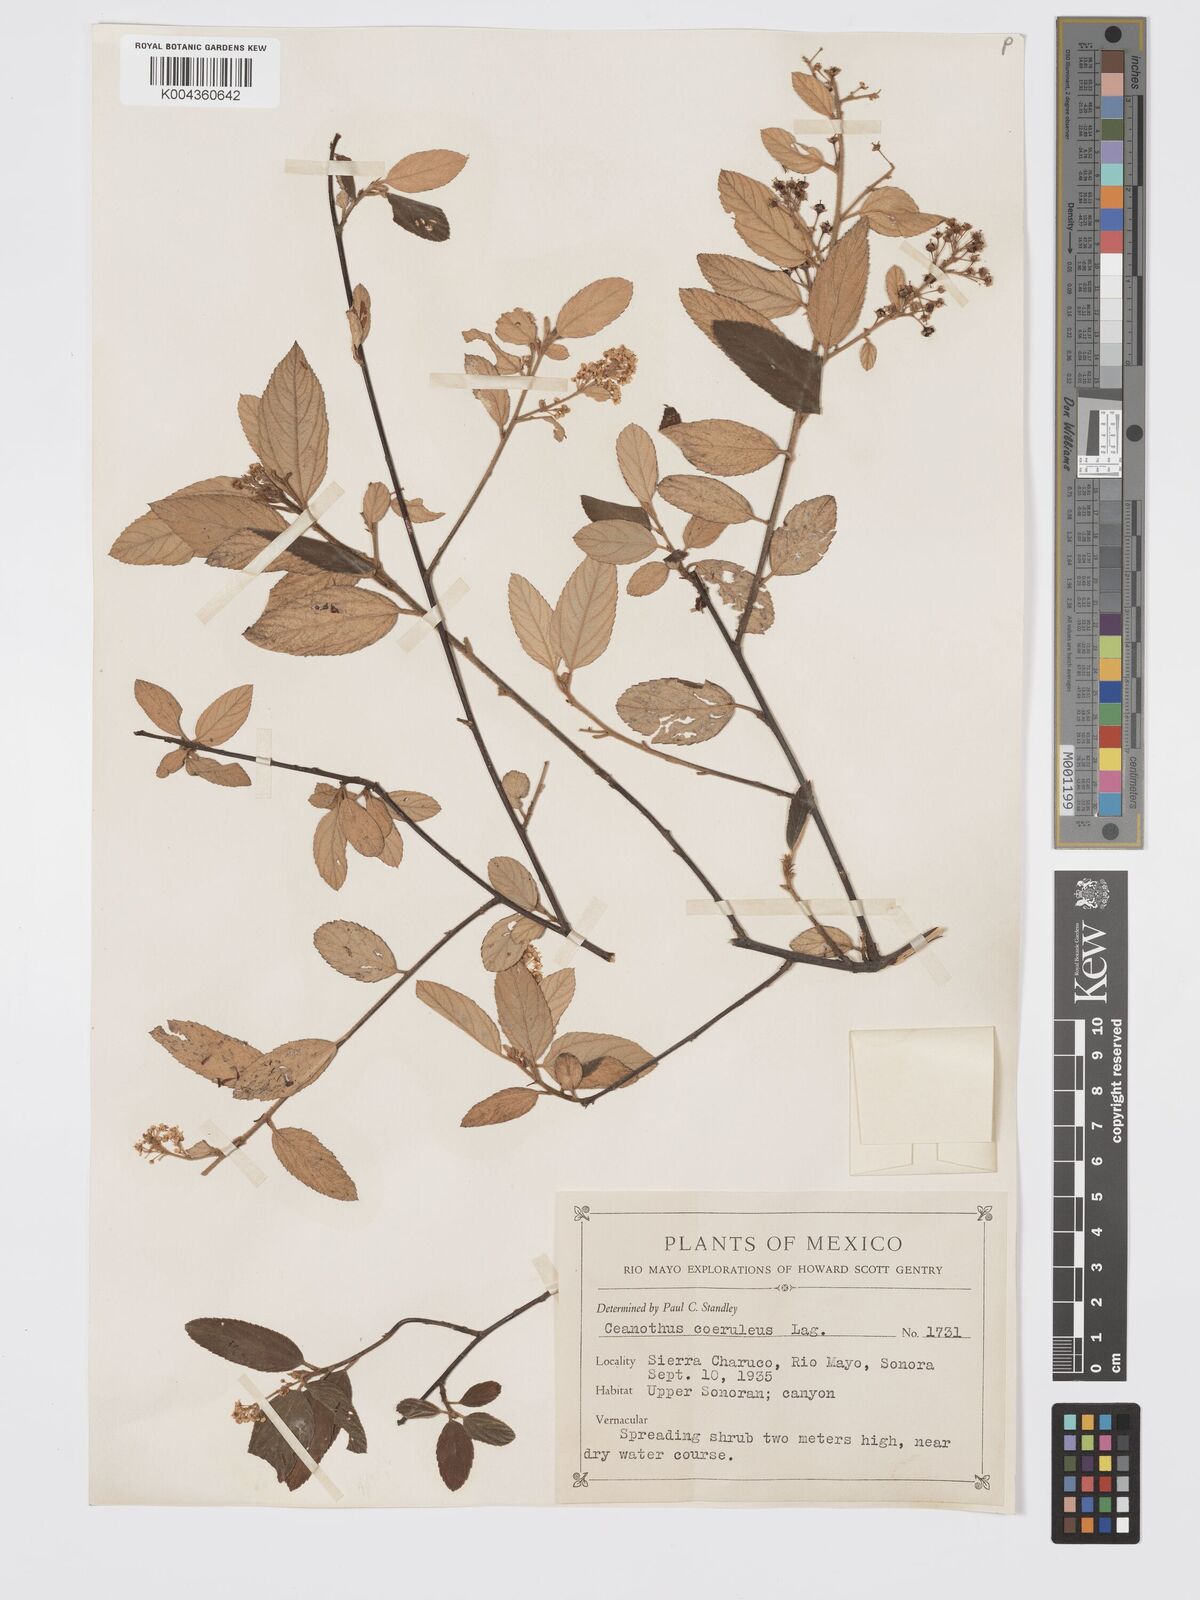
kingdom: Plantae
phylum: Tracheophyta
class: Magnoliopsida
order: Rosales
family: Rhamnaceae
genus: Ceanothus
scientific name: Ceanothus caeruleus
